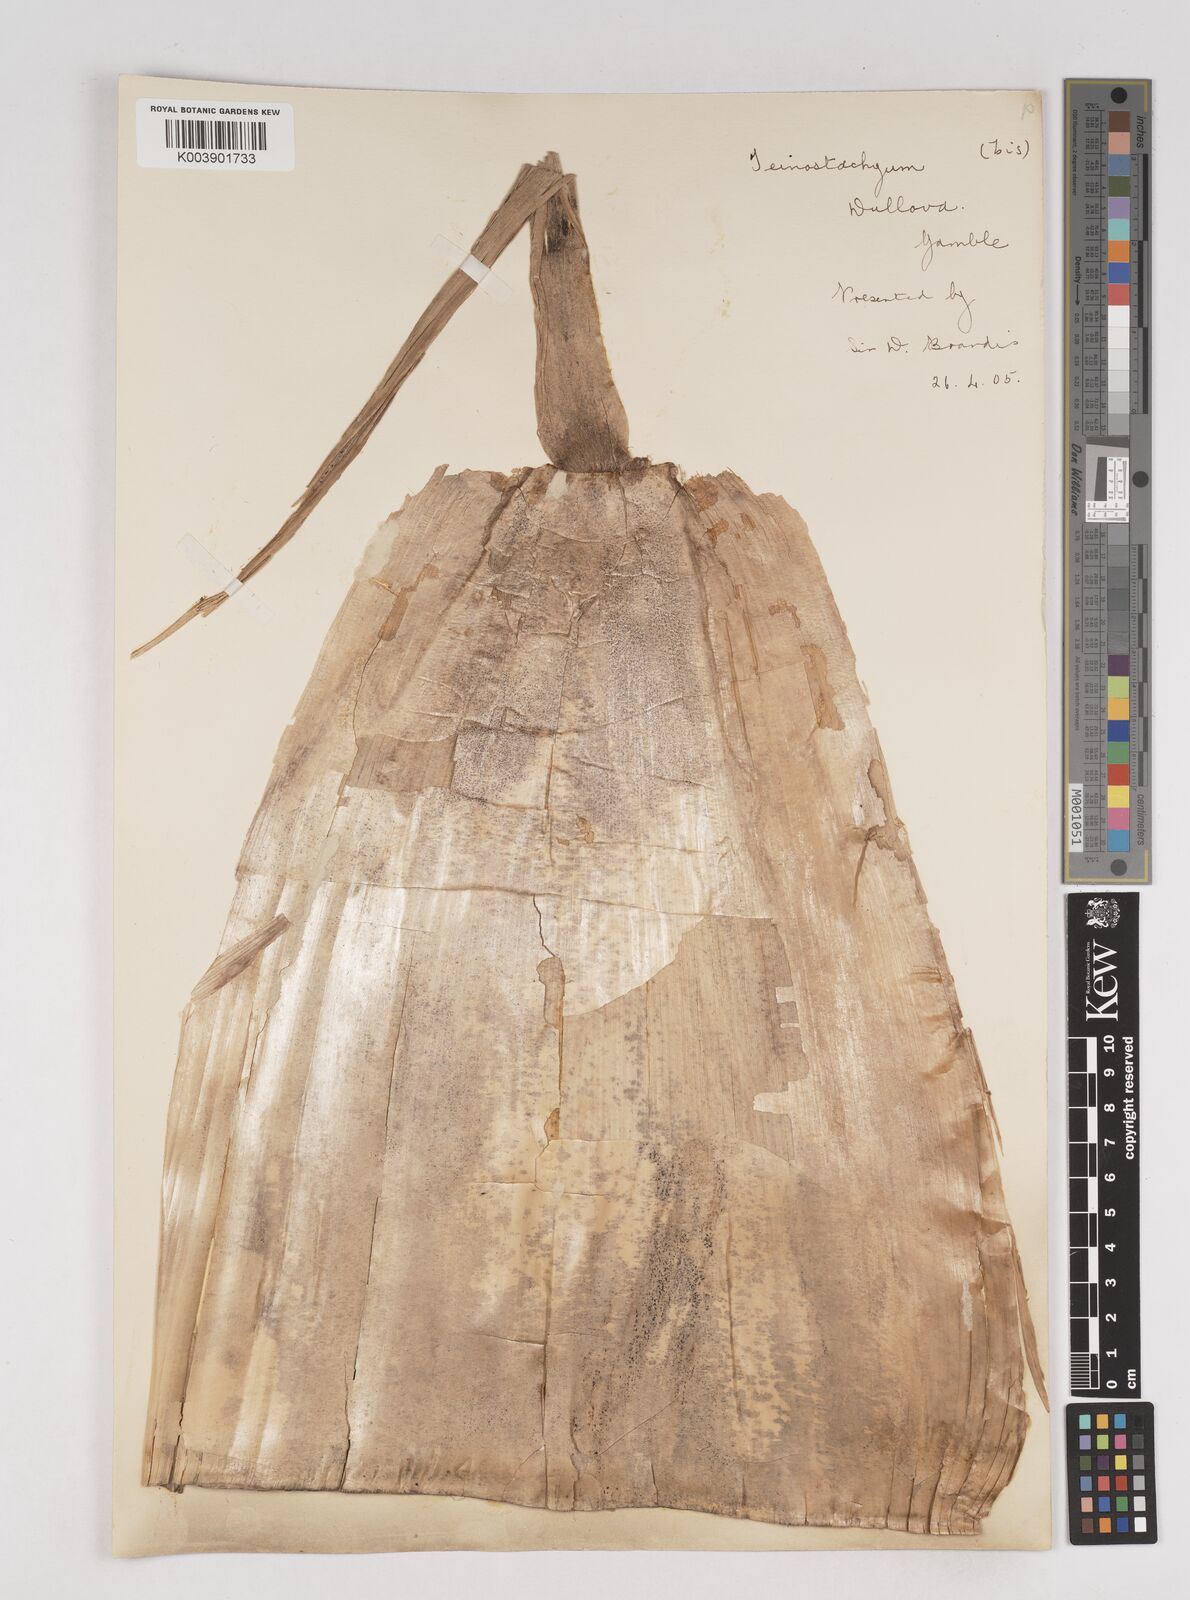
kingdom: Plantae
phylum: Tracheophyta
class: Liliopsida
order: Poales
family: Poaceae
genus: Schizostachyum
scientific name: Schizostachyum dullooa
